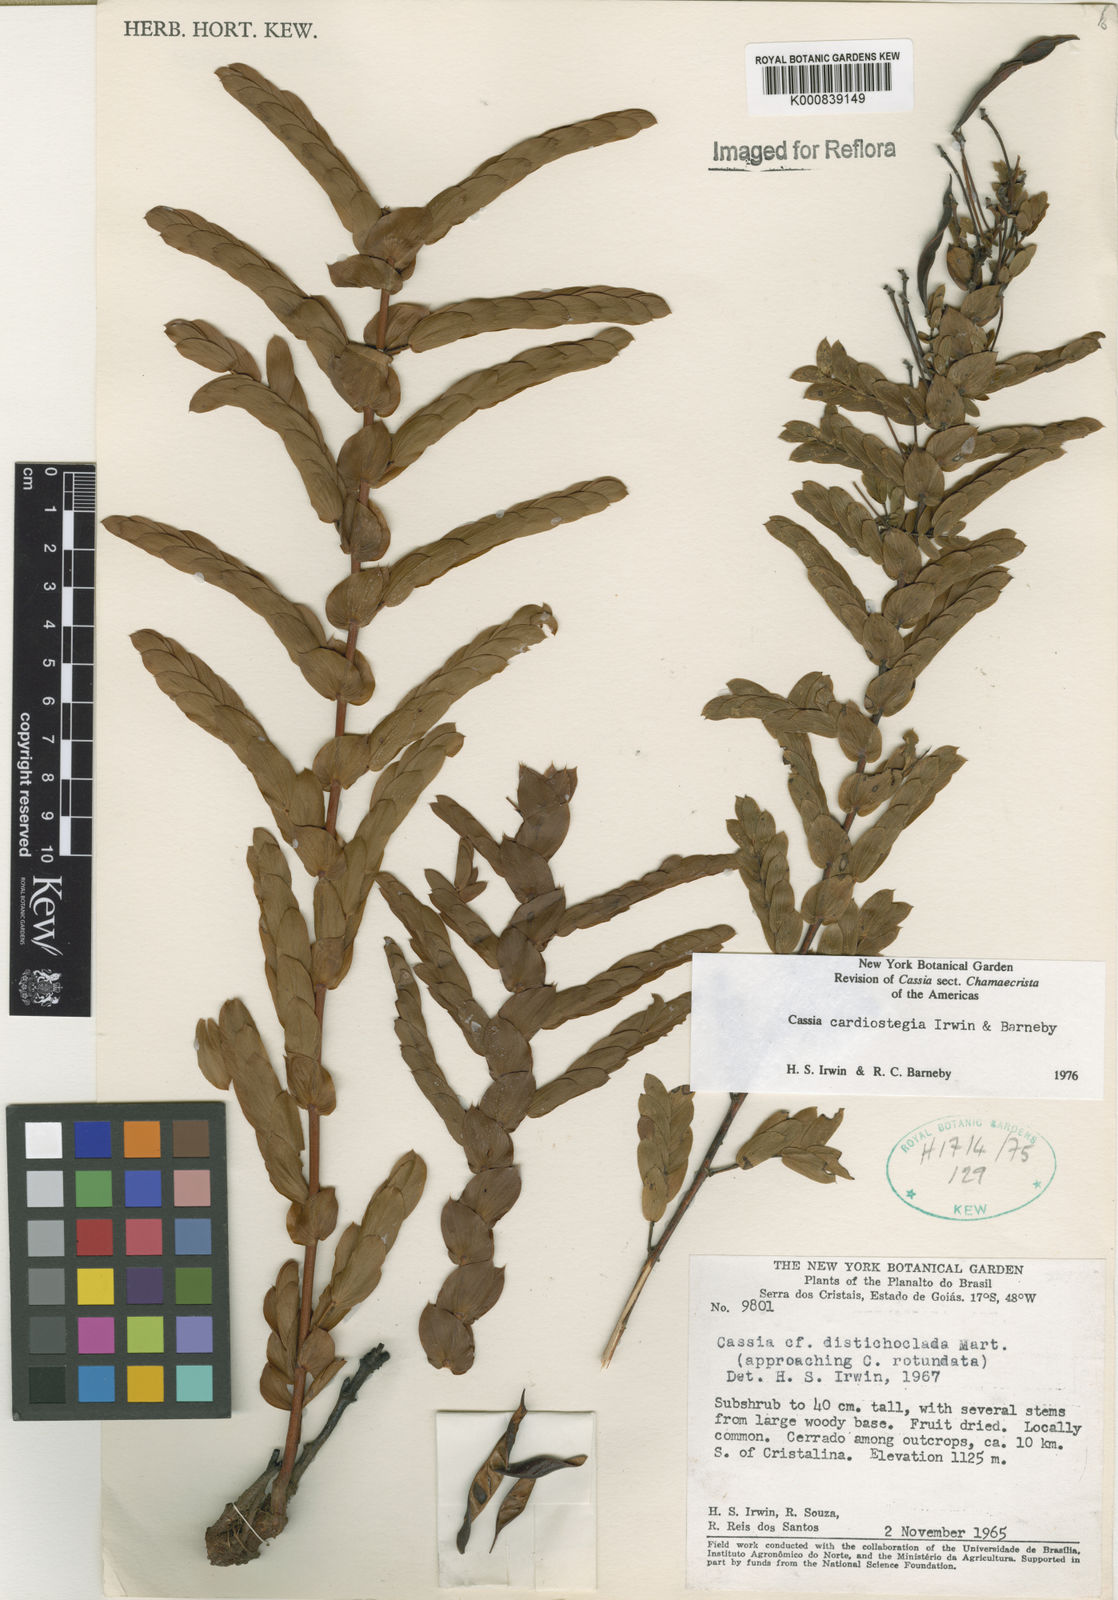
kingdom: Plantae
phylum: Tracheophyta
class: Magnoliopsida
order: Fabales
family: Fabaceae
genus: Chamaecrista
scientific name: Chamaecrista cardiostegia
